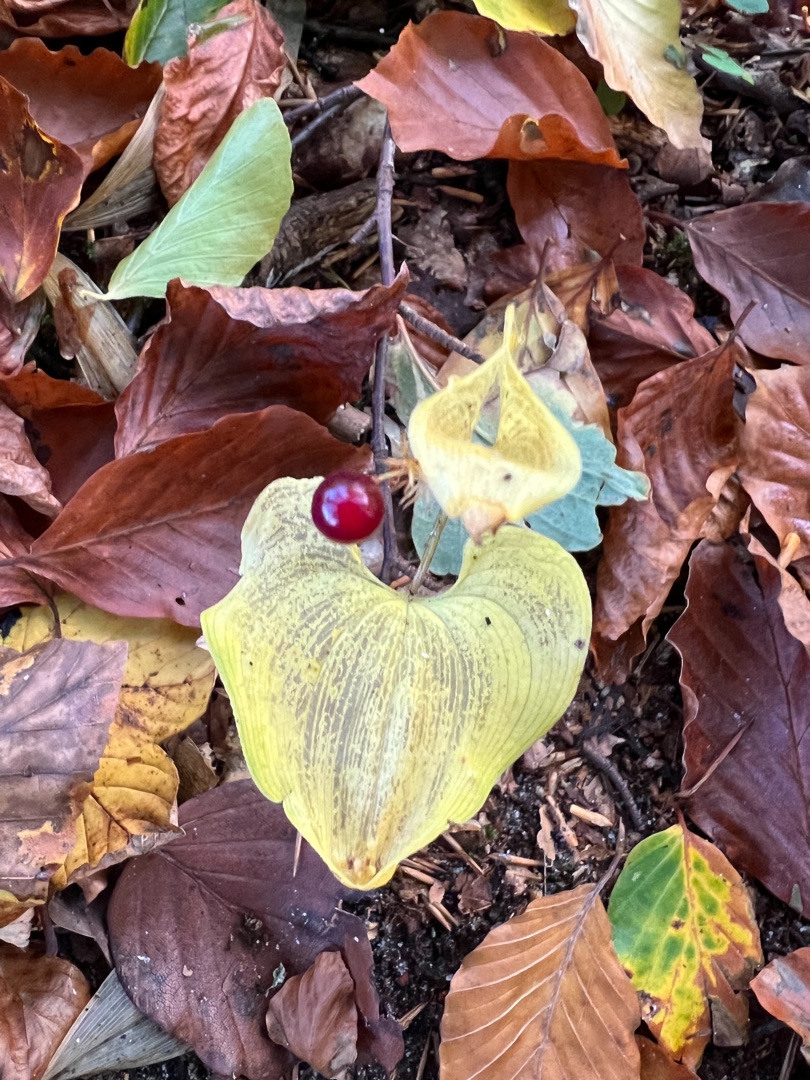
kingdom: Plantae
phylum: Tracheophyta
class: Liliopsida
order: Asparagales
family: Asparagaceae
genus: Maianthemum
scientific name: Maianthemum bifolium
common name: Majblomst
